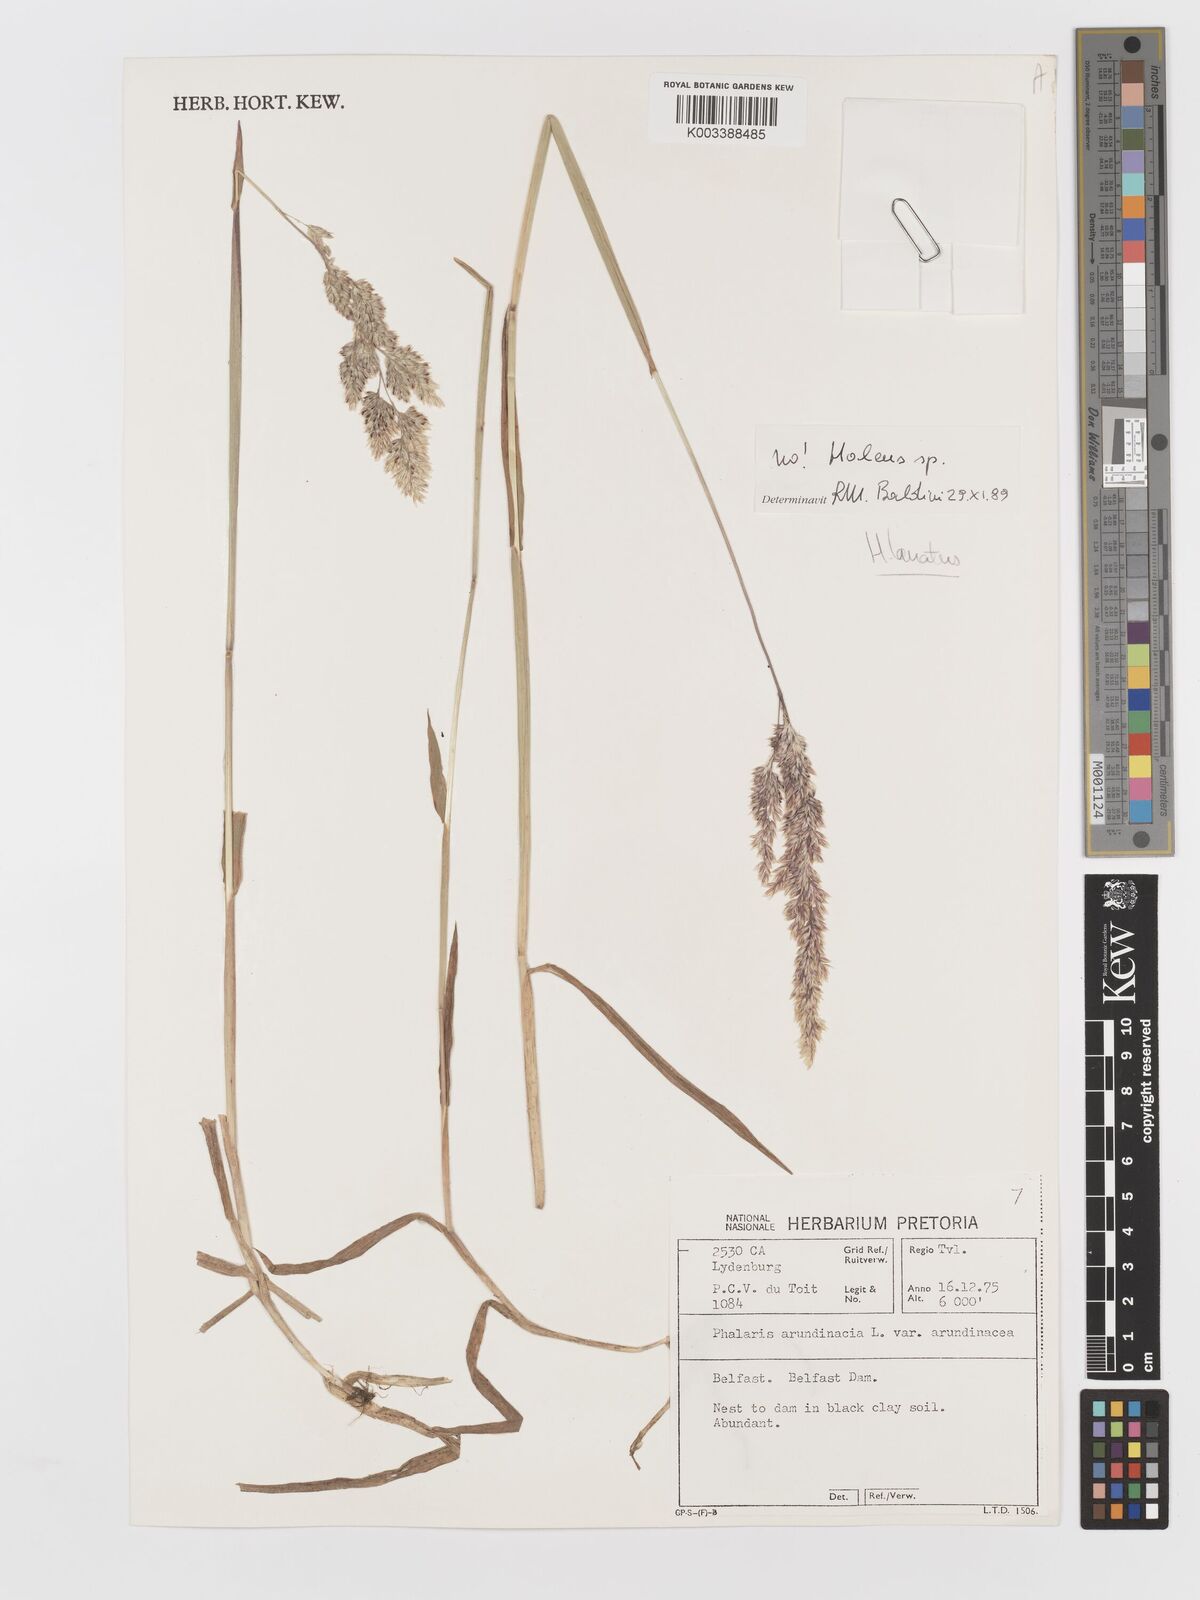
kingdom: Plantae
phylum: Tracheophyta
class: Liliopsida
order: Poales
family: Poaceae
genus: Holcus
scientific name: Holcus lanatus
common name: Yorkshire-fog
